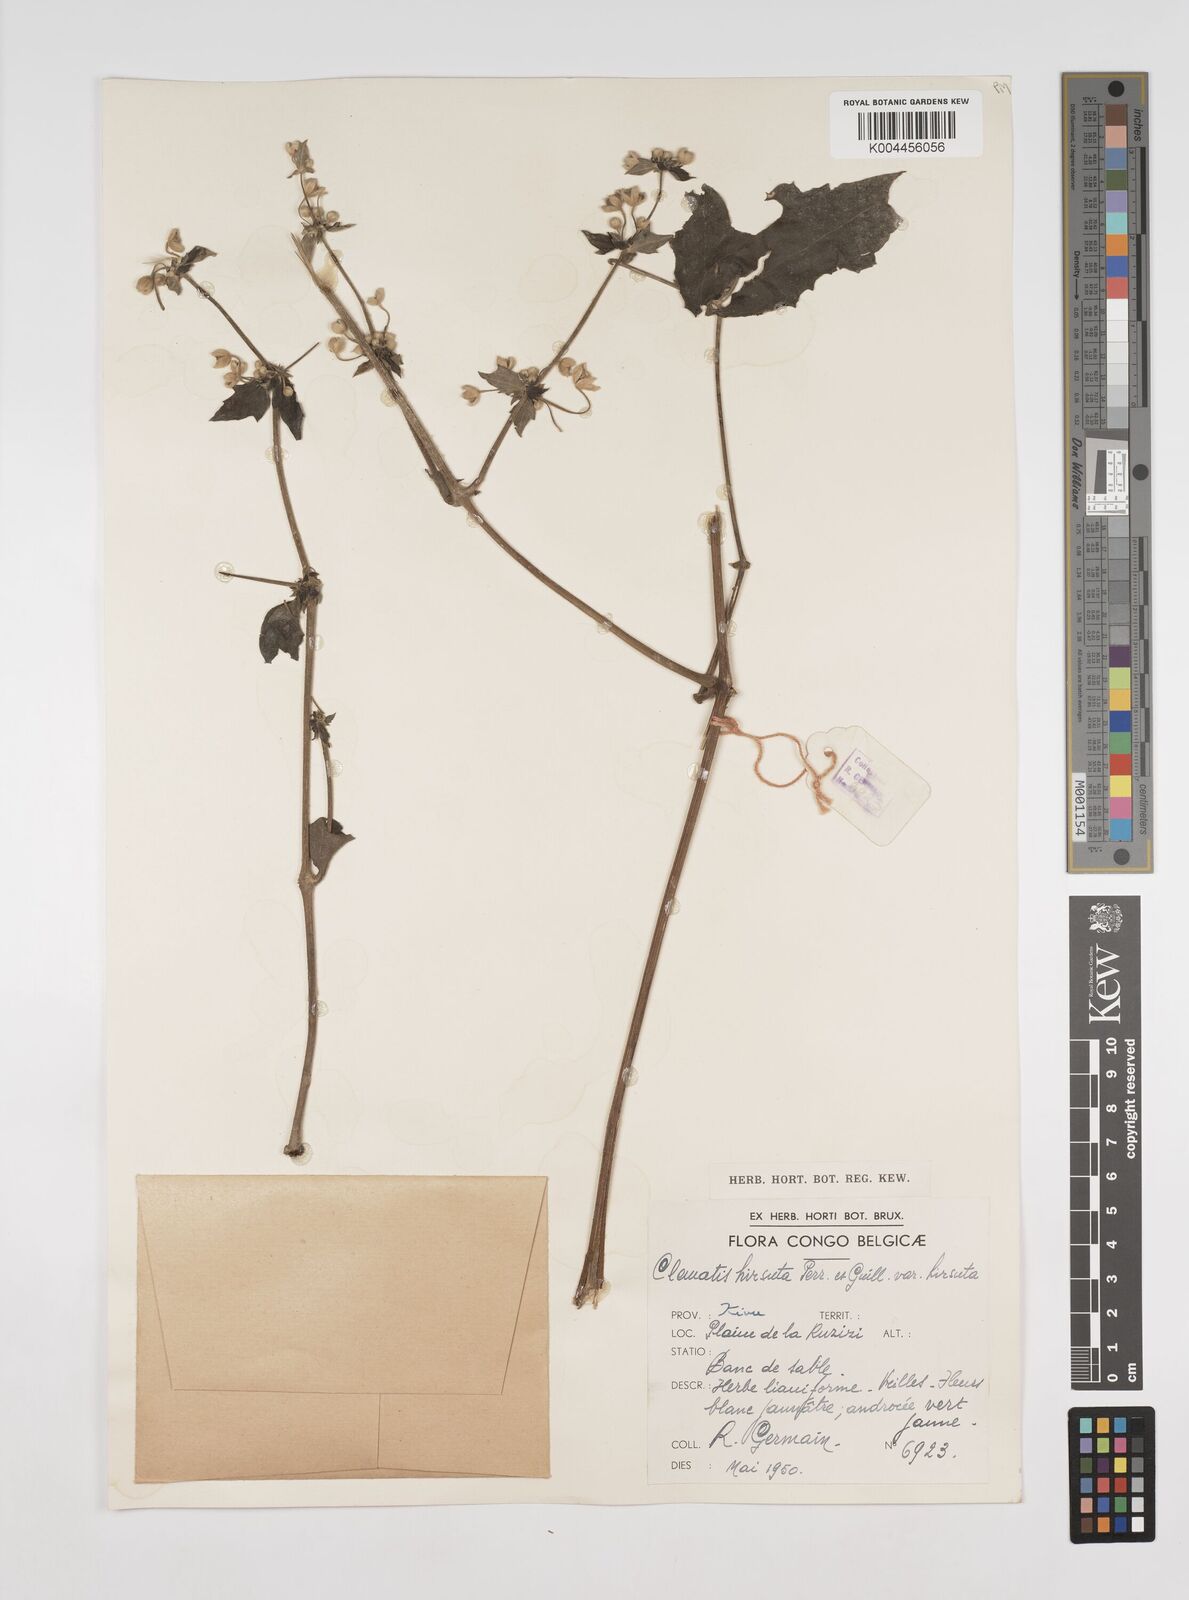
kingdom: Plantae
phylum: Tracheophyta
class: Magnoliopsida
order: Ranunculales
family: Ranunculaceae
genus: Clematis
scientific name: Clematis hirsuta
